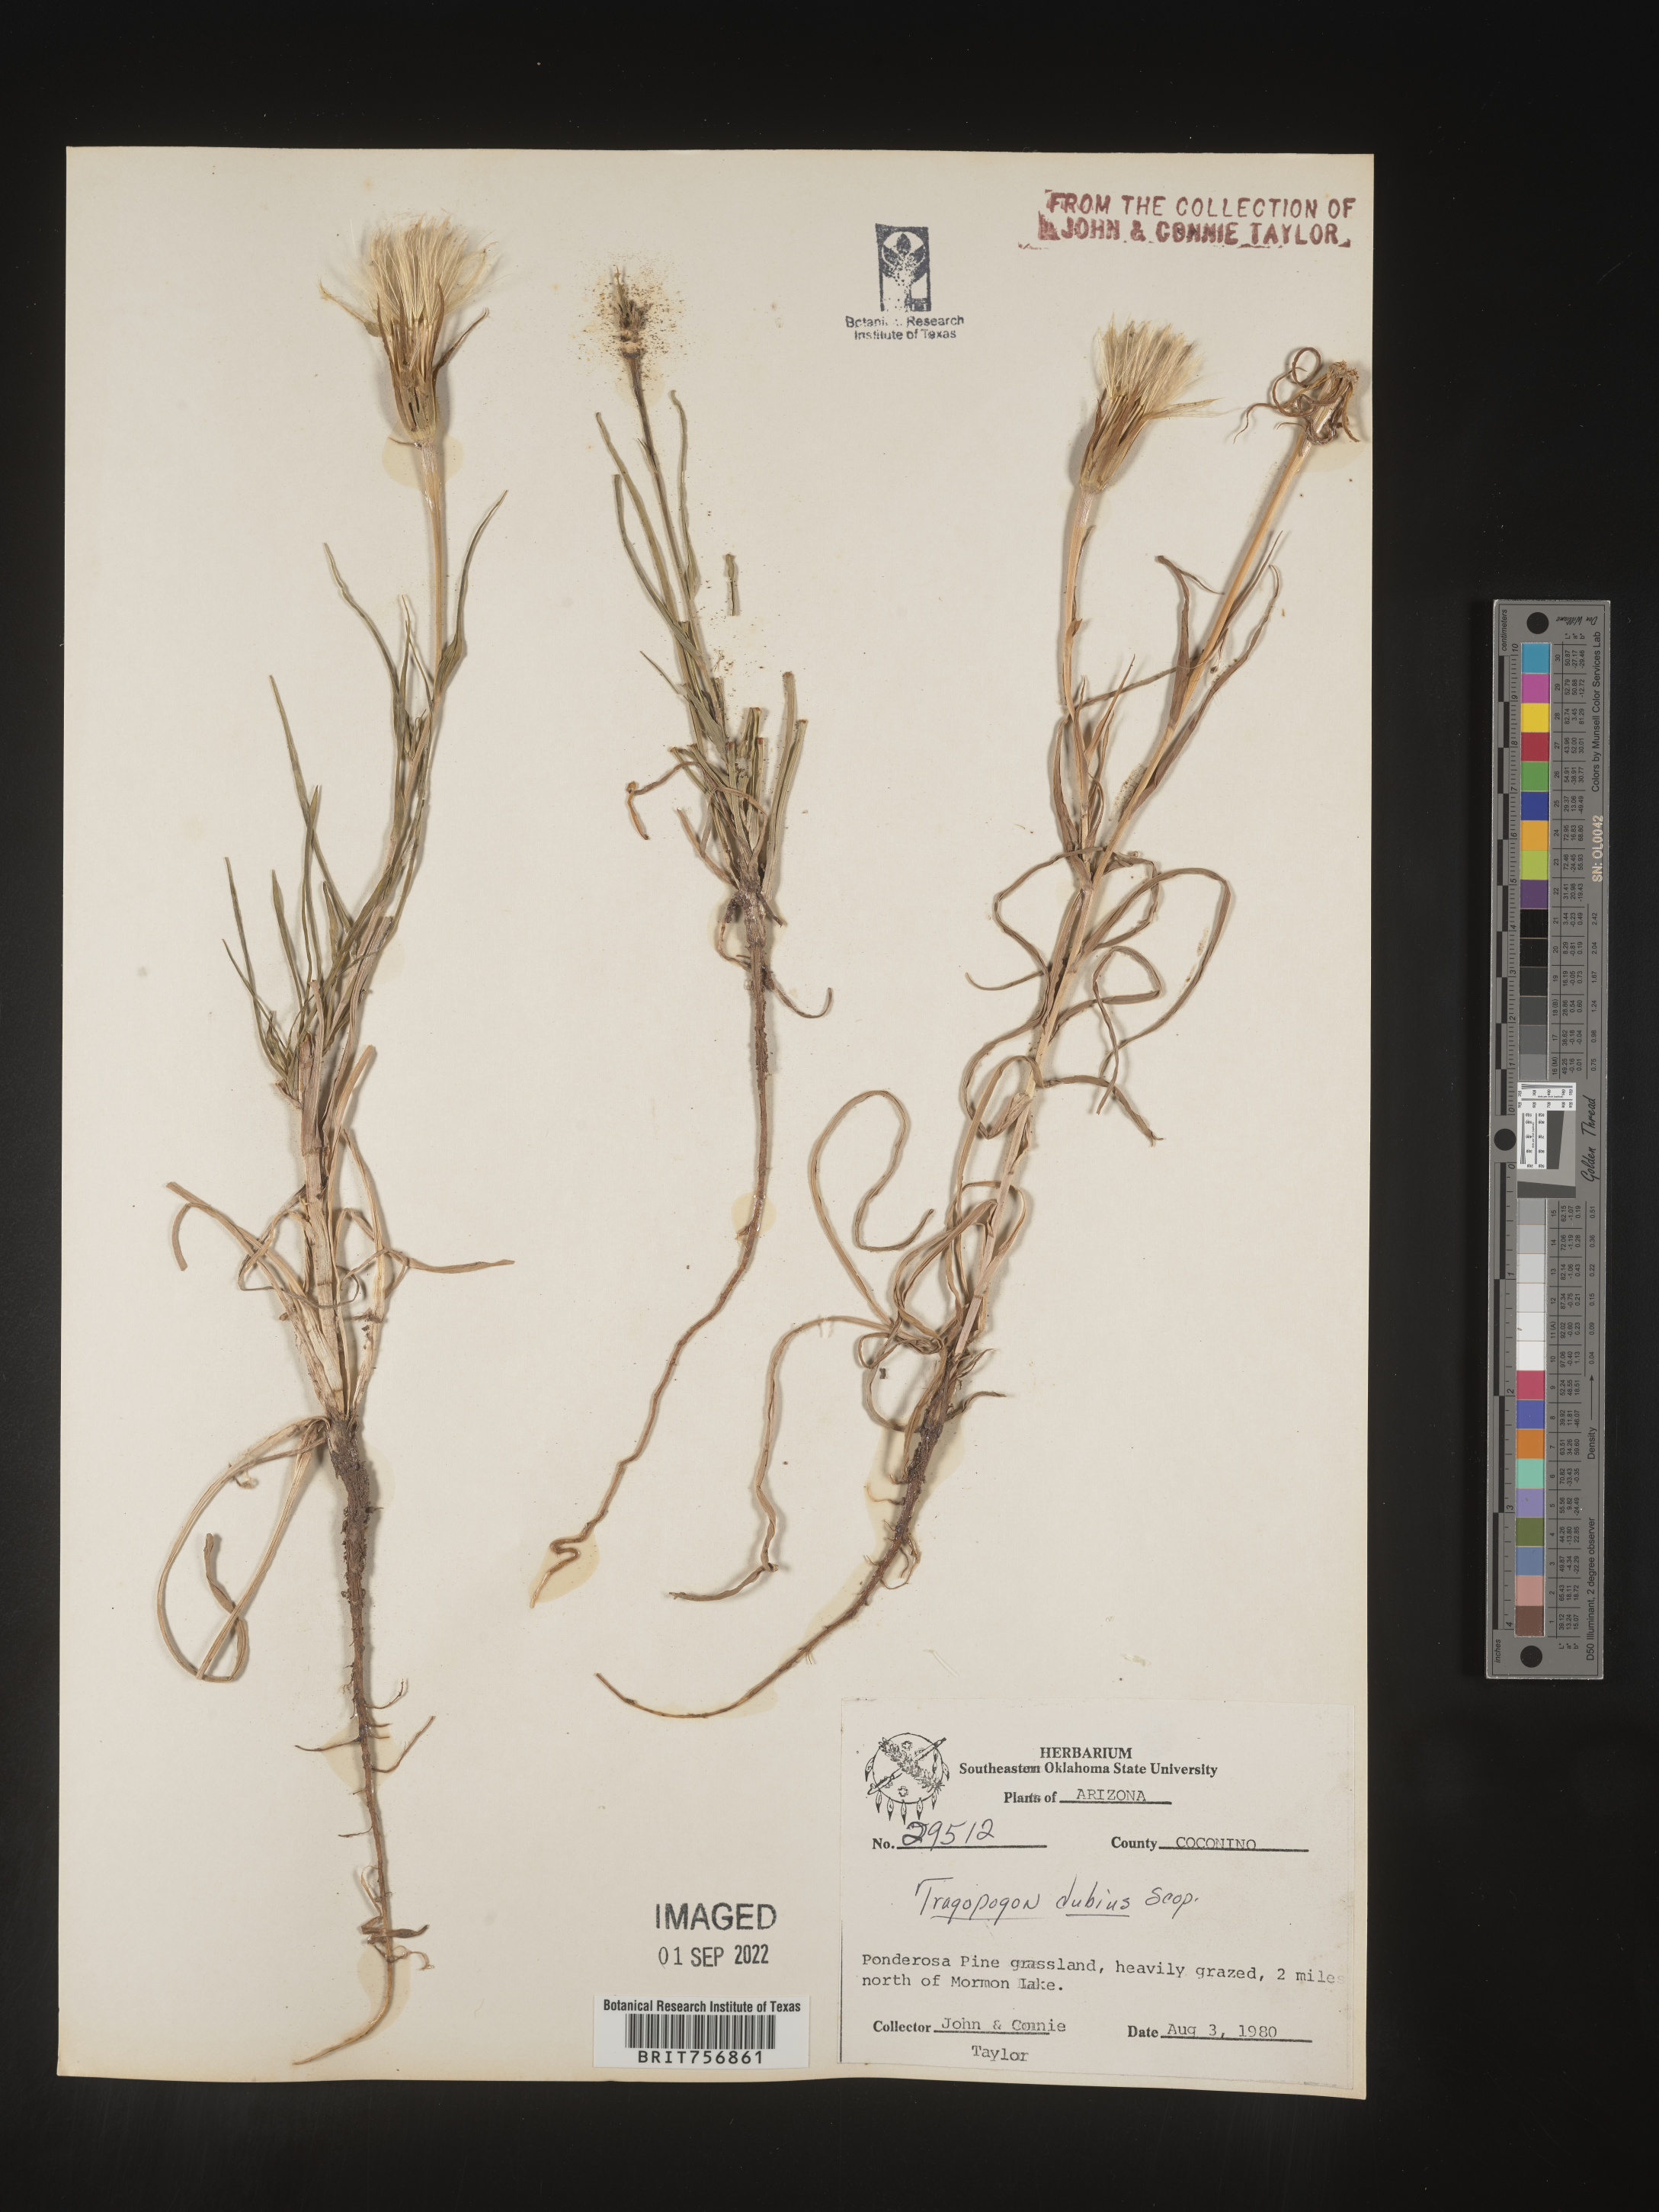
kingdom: Plantae
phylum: Tracheophyta
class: Magnoliopsida
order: Asterales
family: Asteraceae
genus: Tragopogon
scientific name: Tragopogon dubius
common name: Yellow salsify
